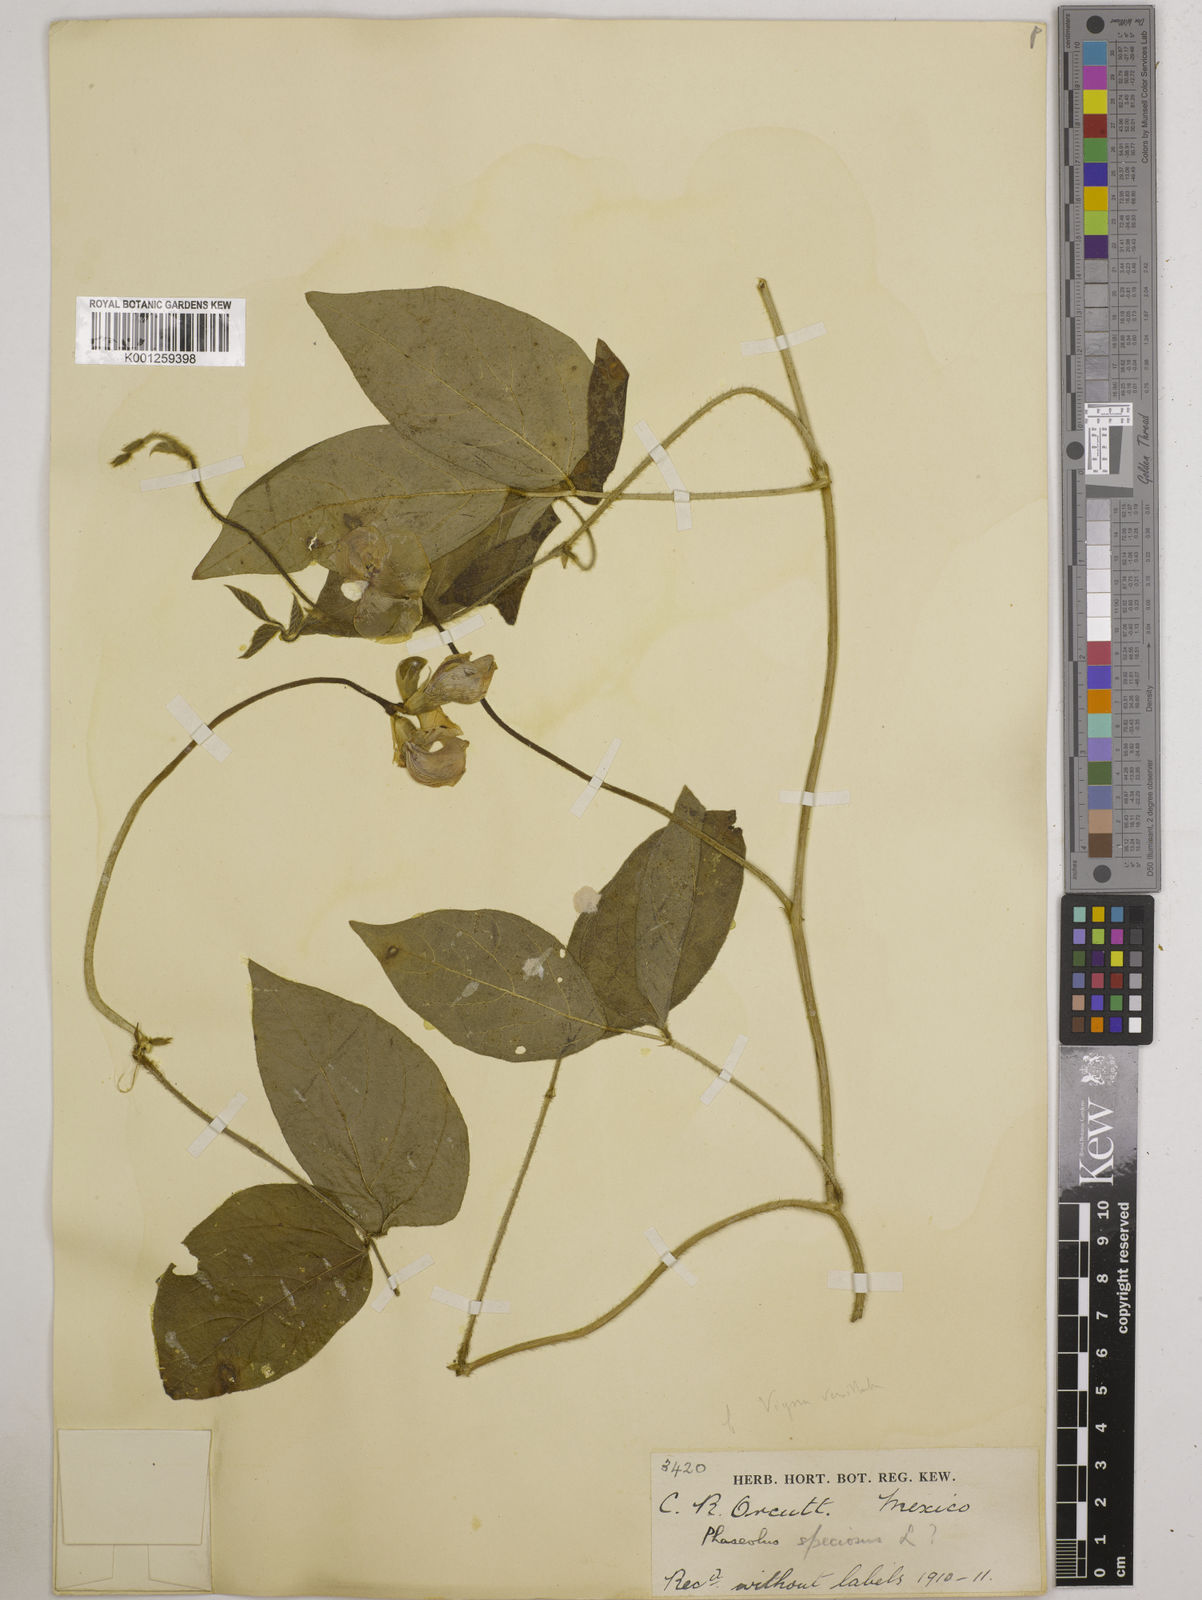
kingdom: Plantae
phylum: Tracheophyta
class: Magnoliopsida
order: Fabales
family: Fabaceae
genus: Vigna
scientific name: Vigna vexillata
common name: Zombi pea
